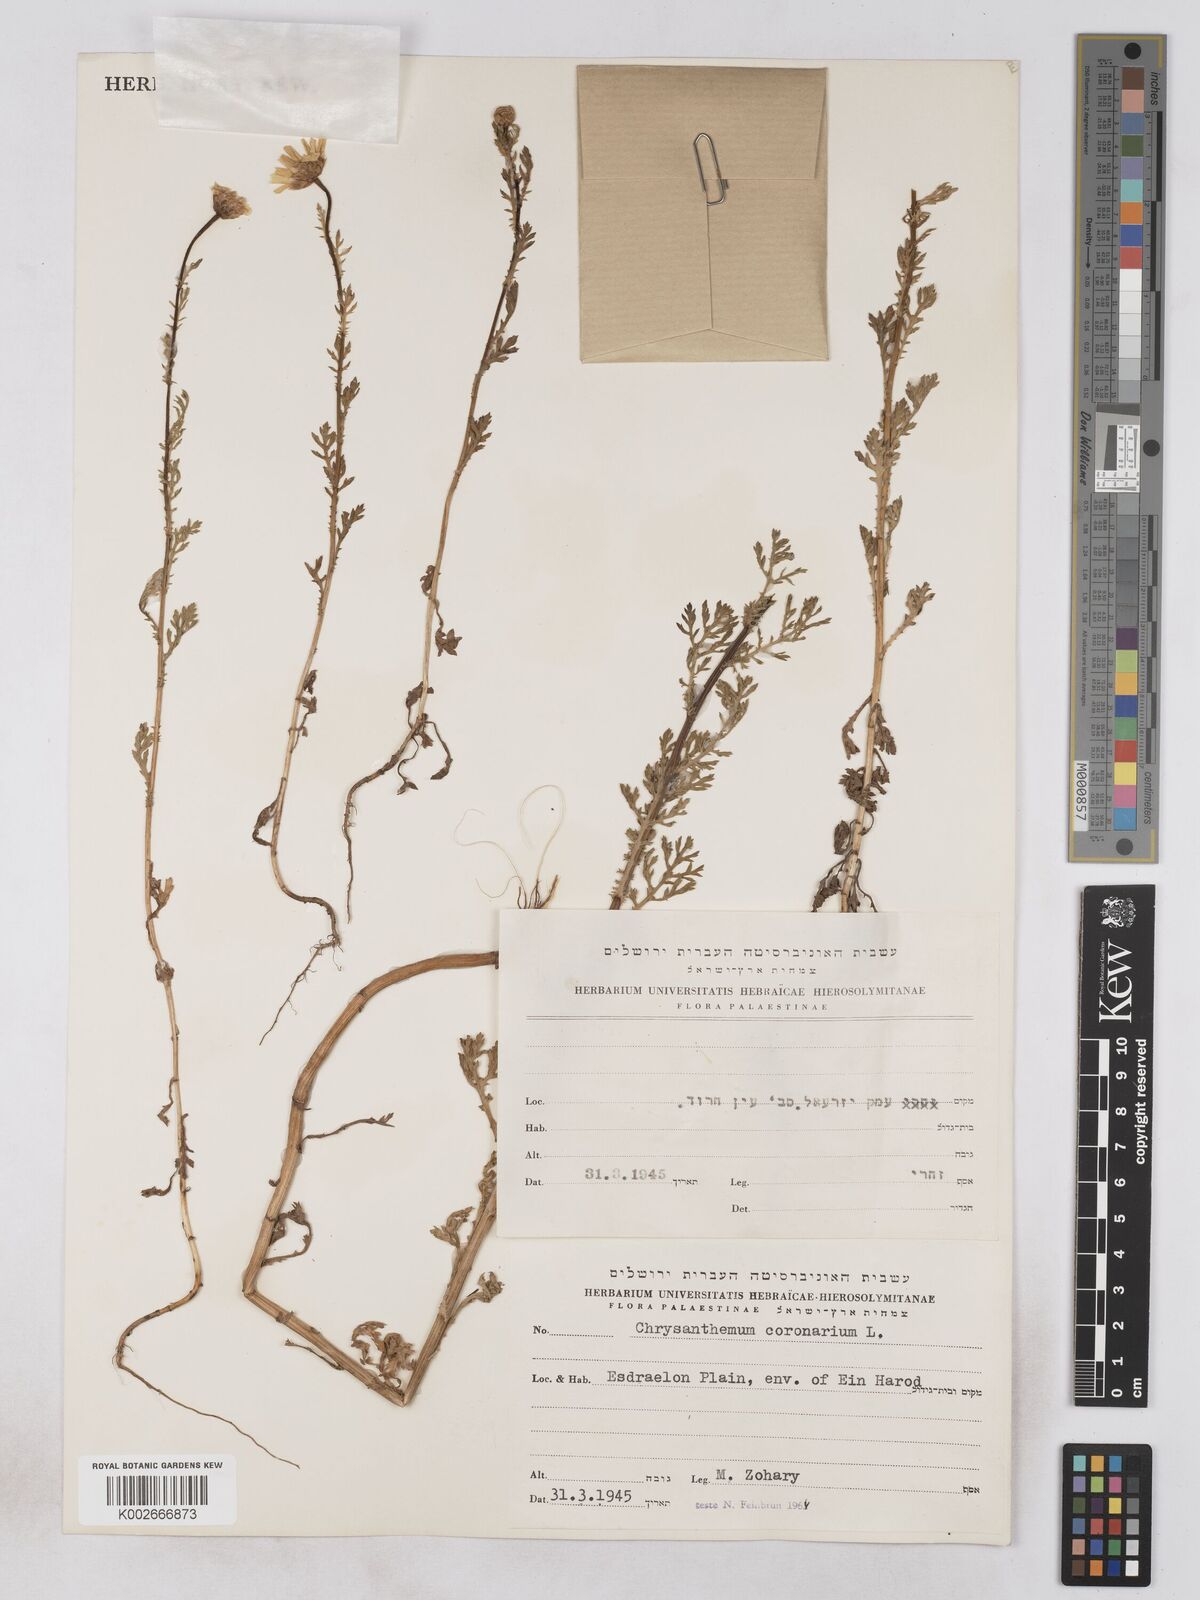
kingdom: Plantae
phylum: Tracheophyta
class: Magnoliopsida
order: Asterales
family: Asteraceae
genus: Glebionis
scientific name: Glebionis coronaria
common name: Crowndaisy
